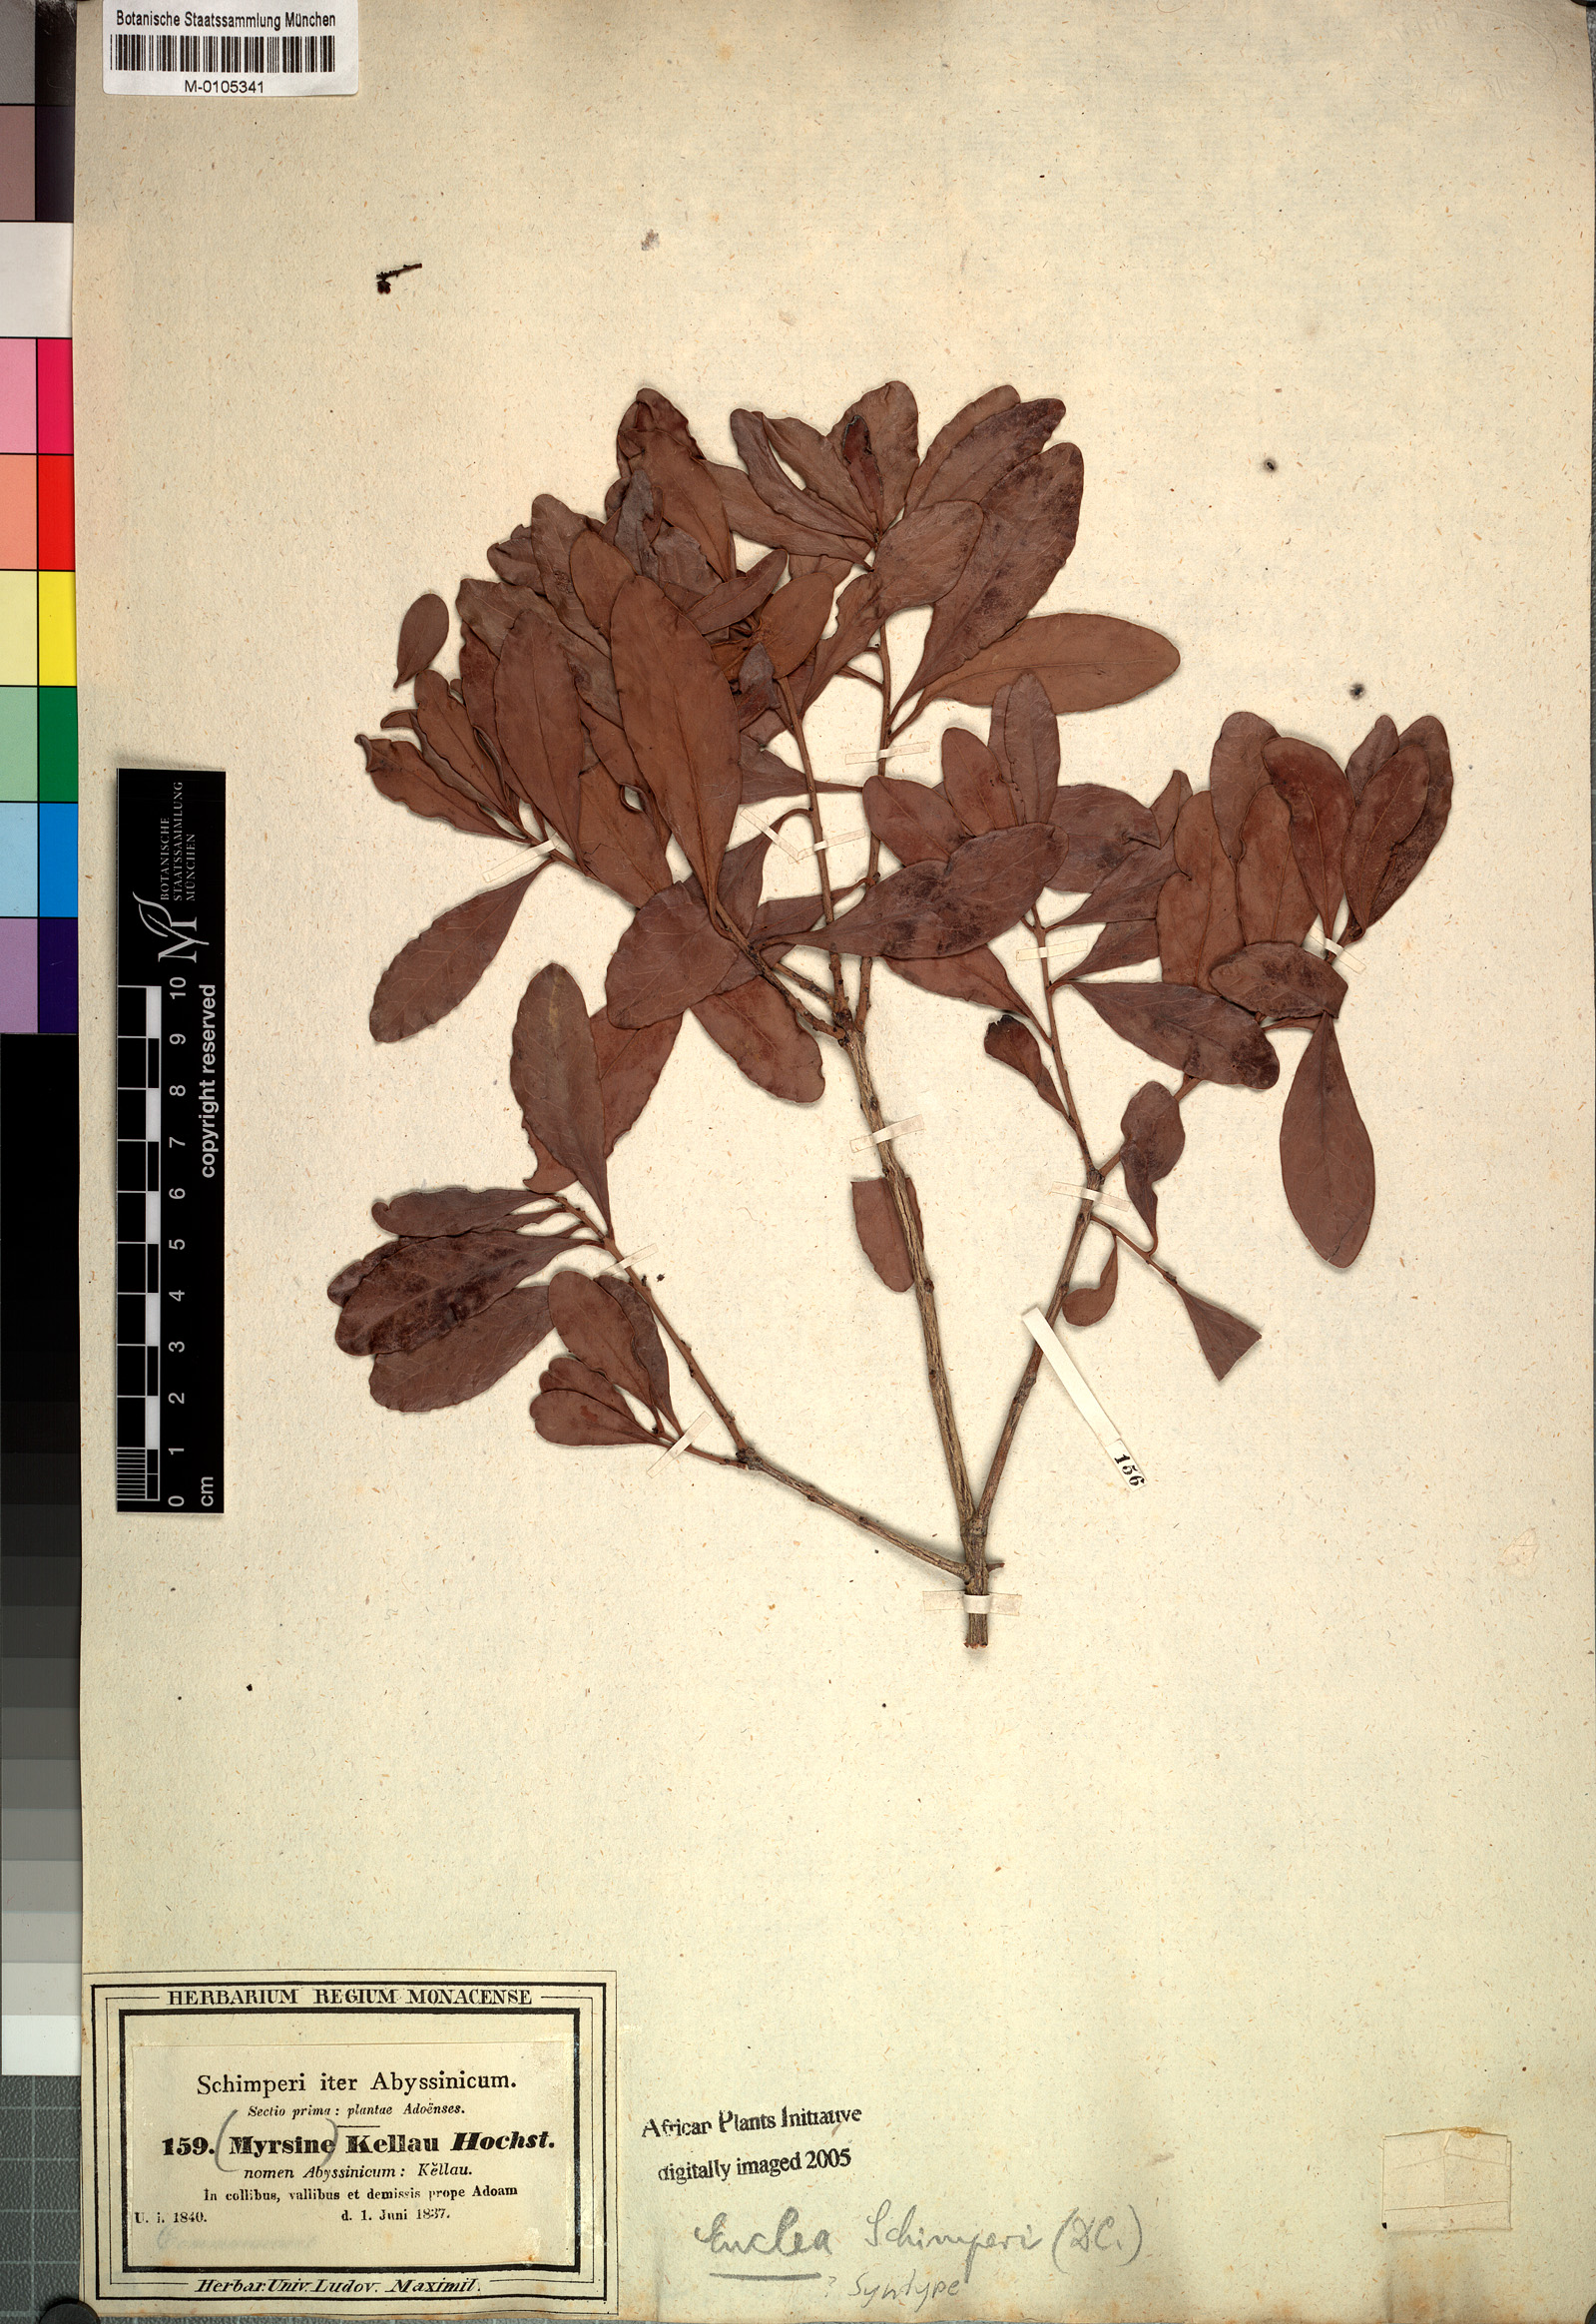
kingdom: Plantae
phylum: Tracheophyta
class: Magnoliopsida
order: Ericales
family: Ebenaceae
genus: Euclea
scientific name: Euclea racemosa
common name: Dune guarri
